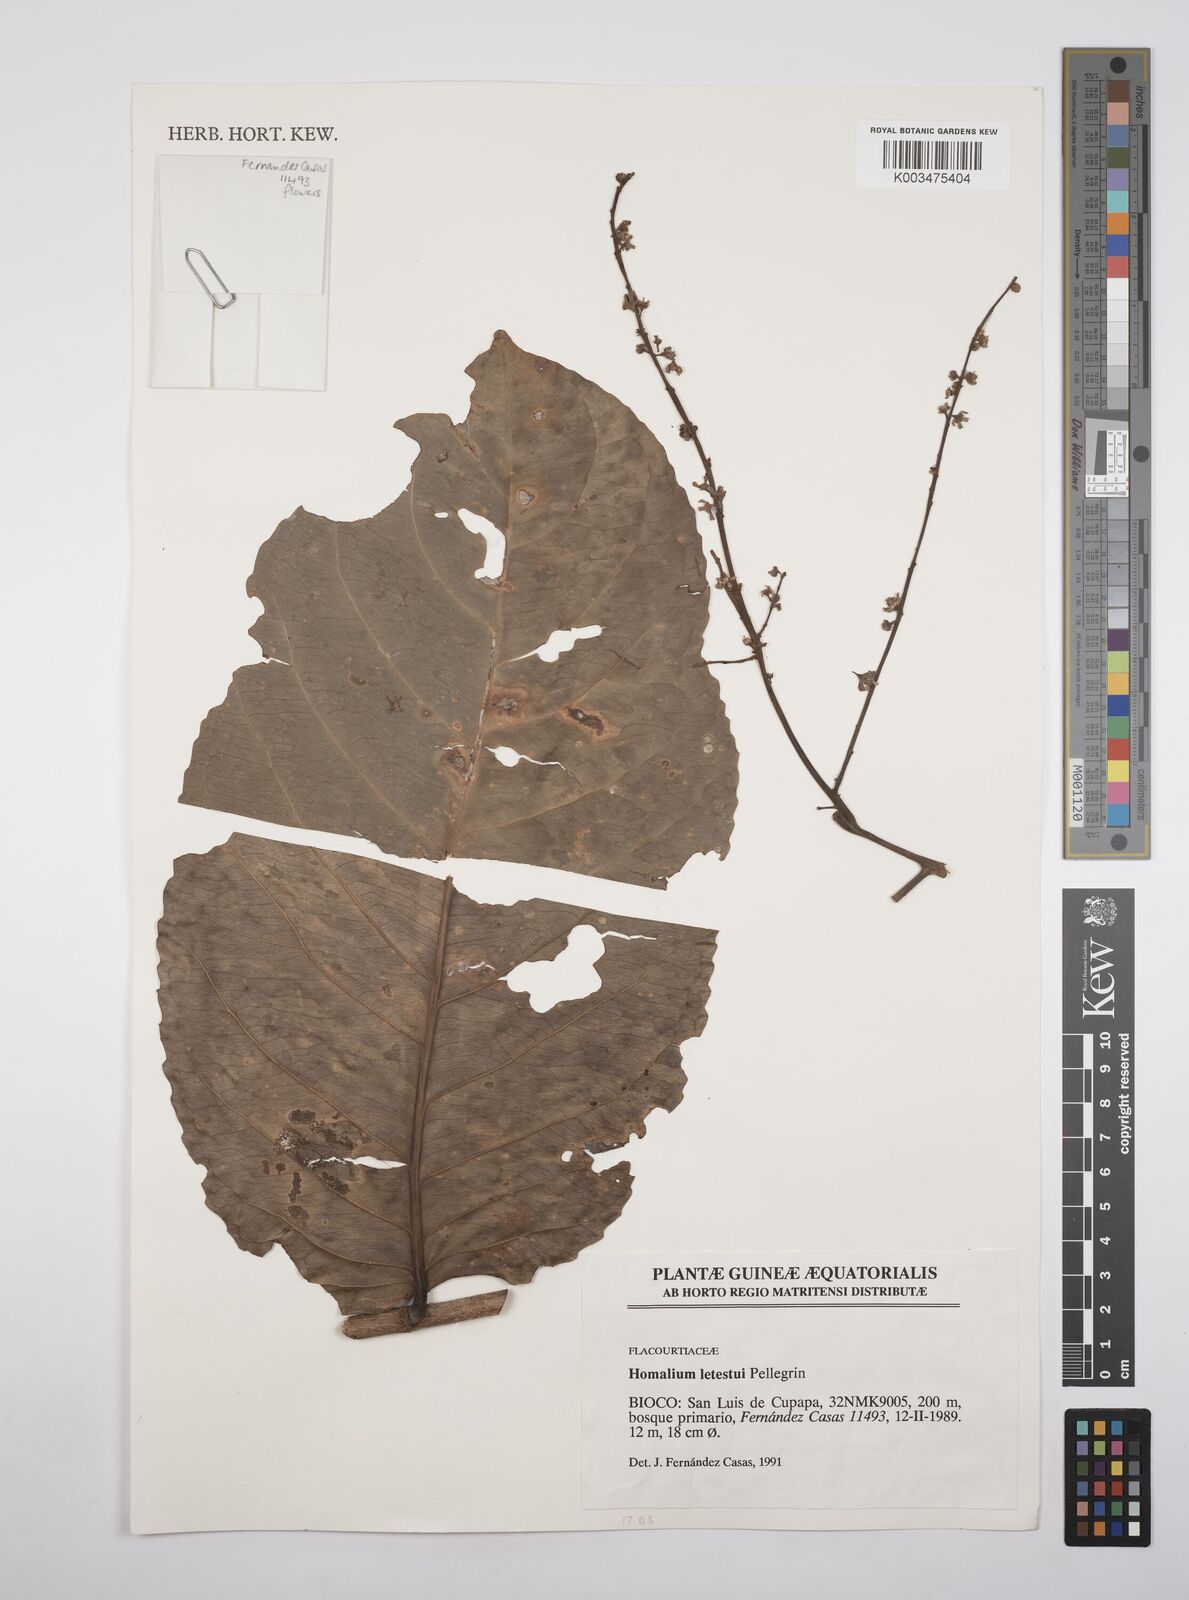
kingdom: Plantae
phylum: Tracheophyta
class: Magnoliopsida
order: Malpighiales
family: Salicaceae
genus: Homalium
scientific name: Homalium letestui
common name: African homalium
